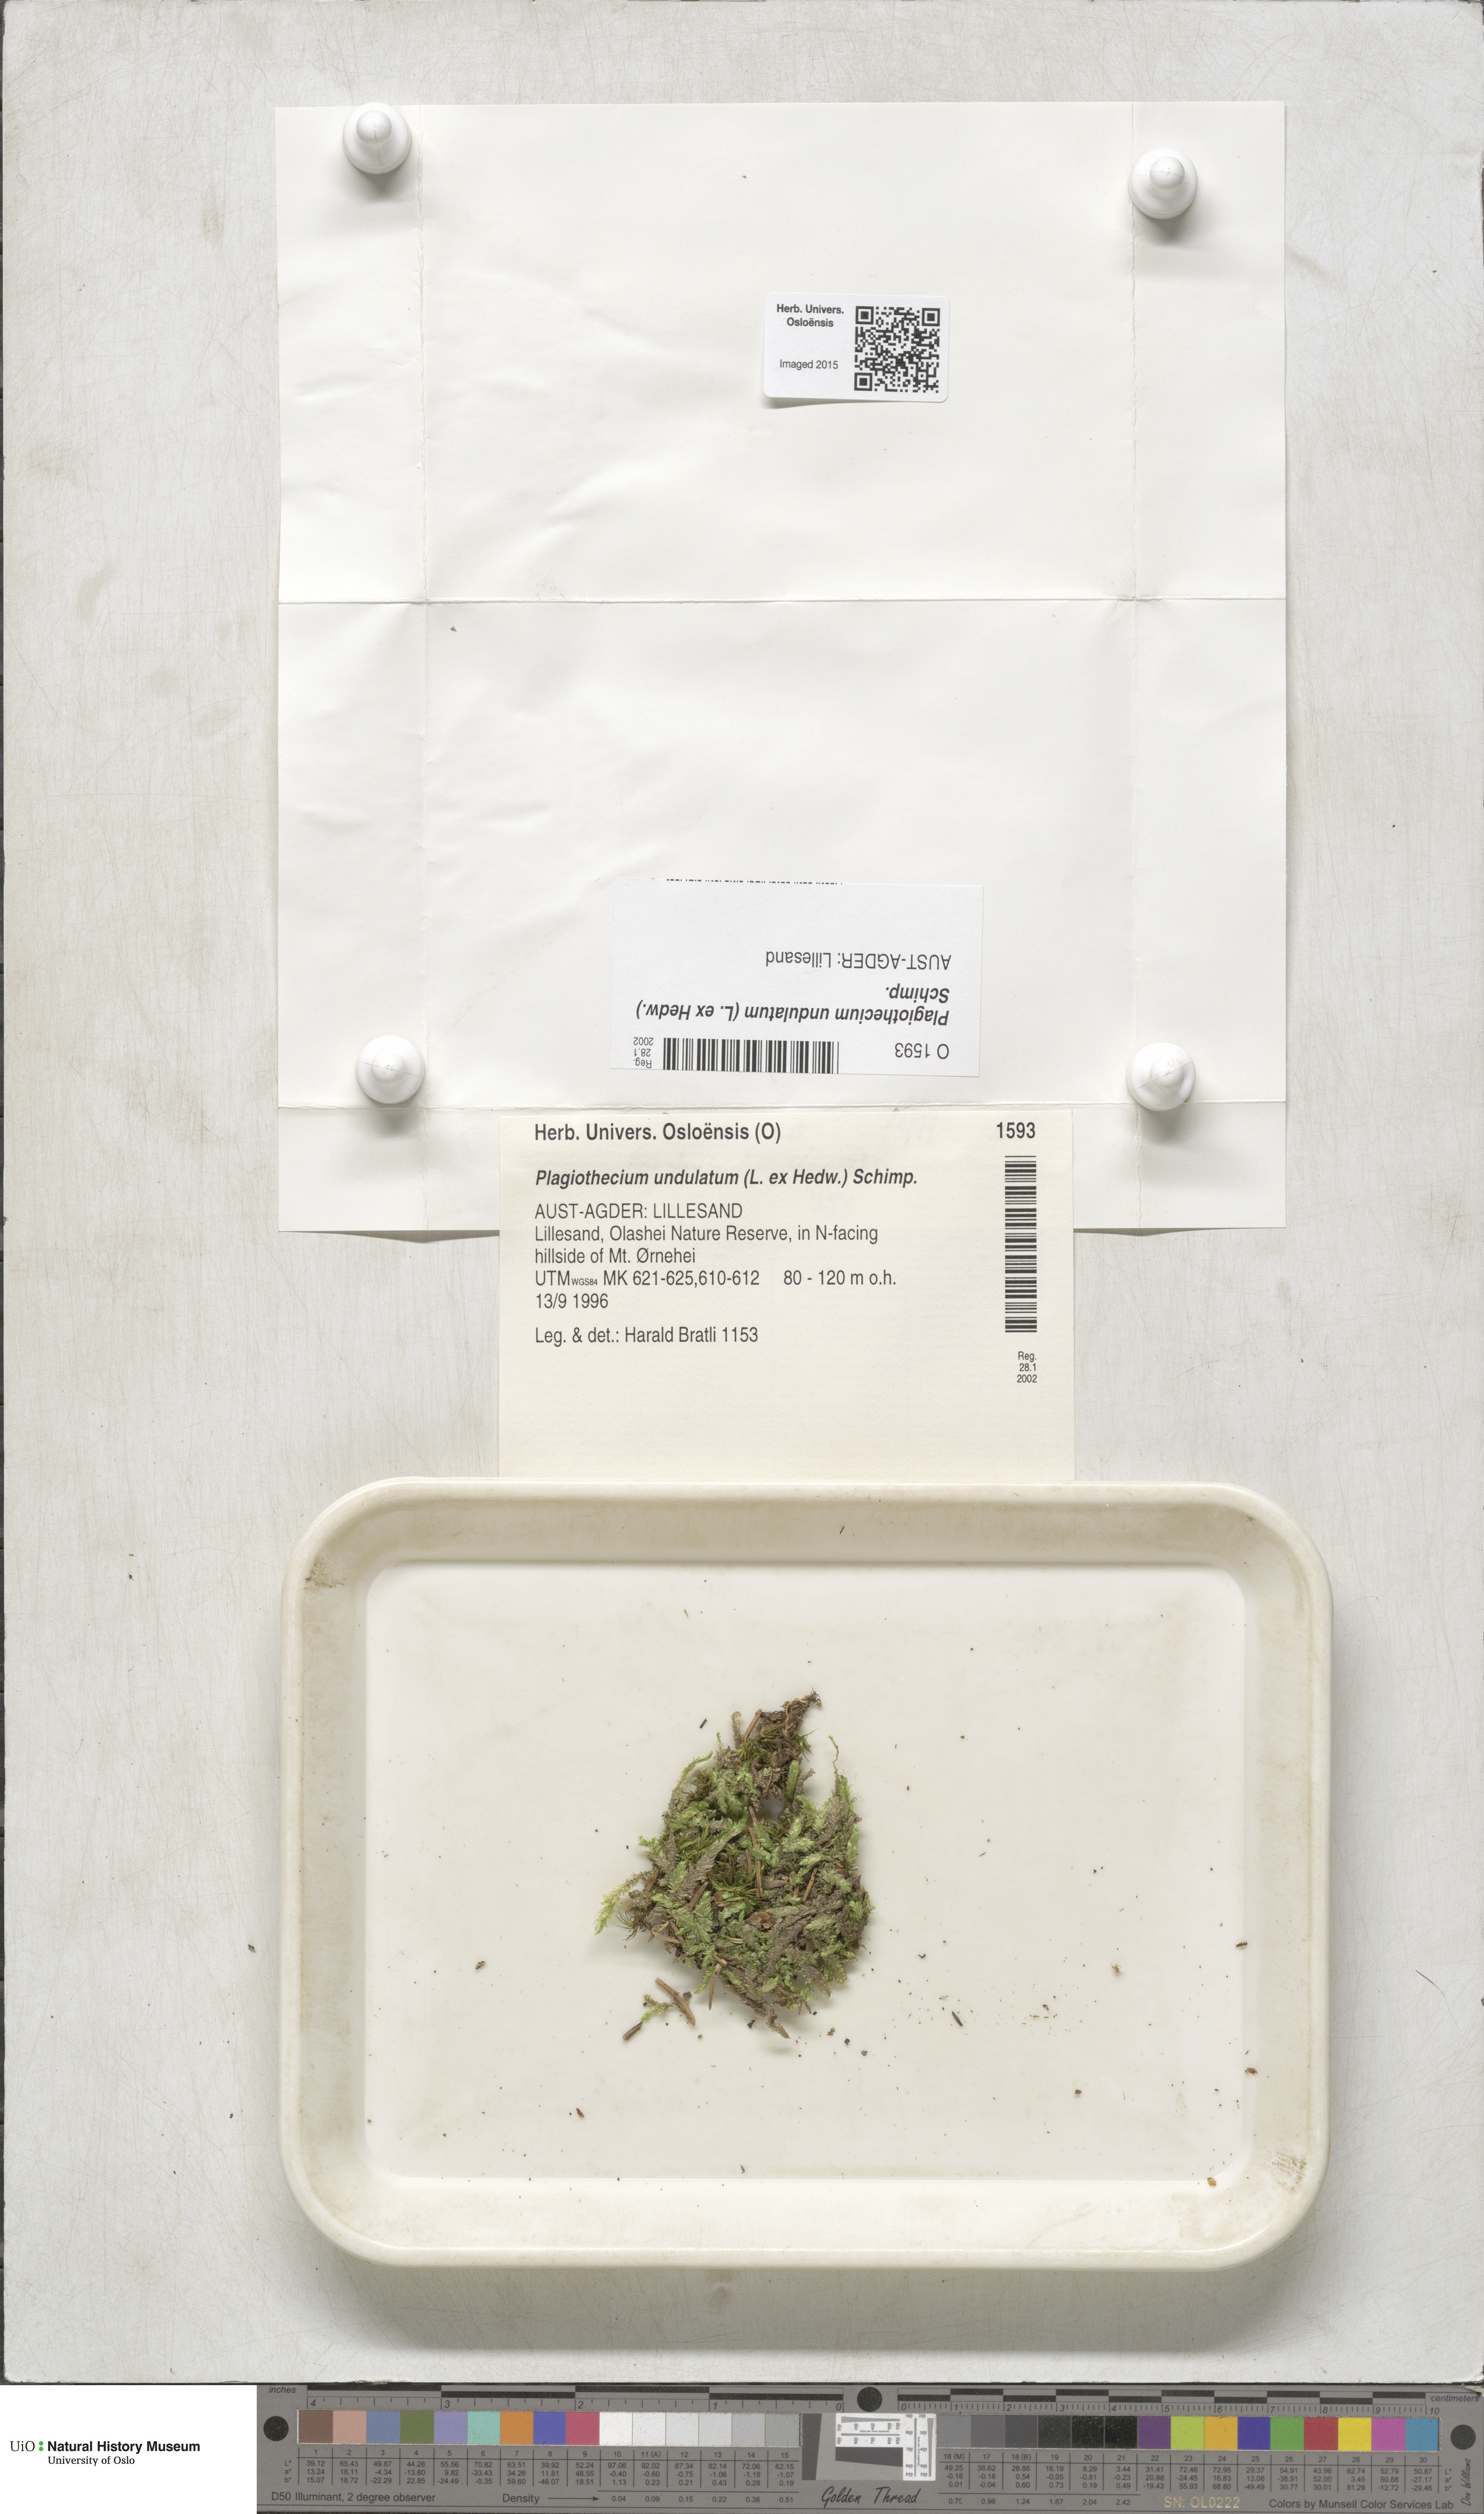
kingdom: Plantae
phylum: Bryophyta
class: Bryopsida
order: Hypnales
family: Plagiotheciaceae
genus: Plagiothecium
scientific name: Plagiothecium undulatum
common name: Waved silk-moss
